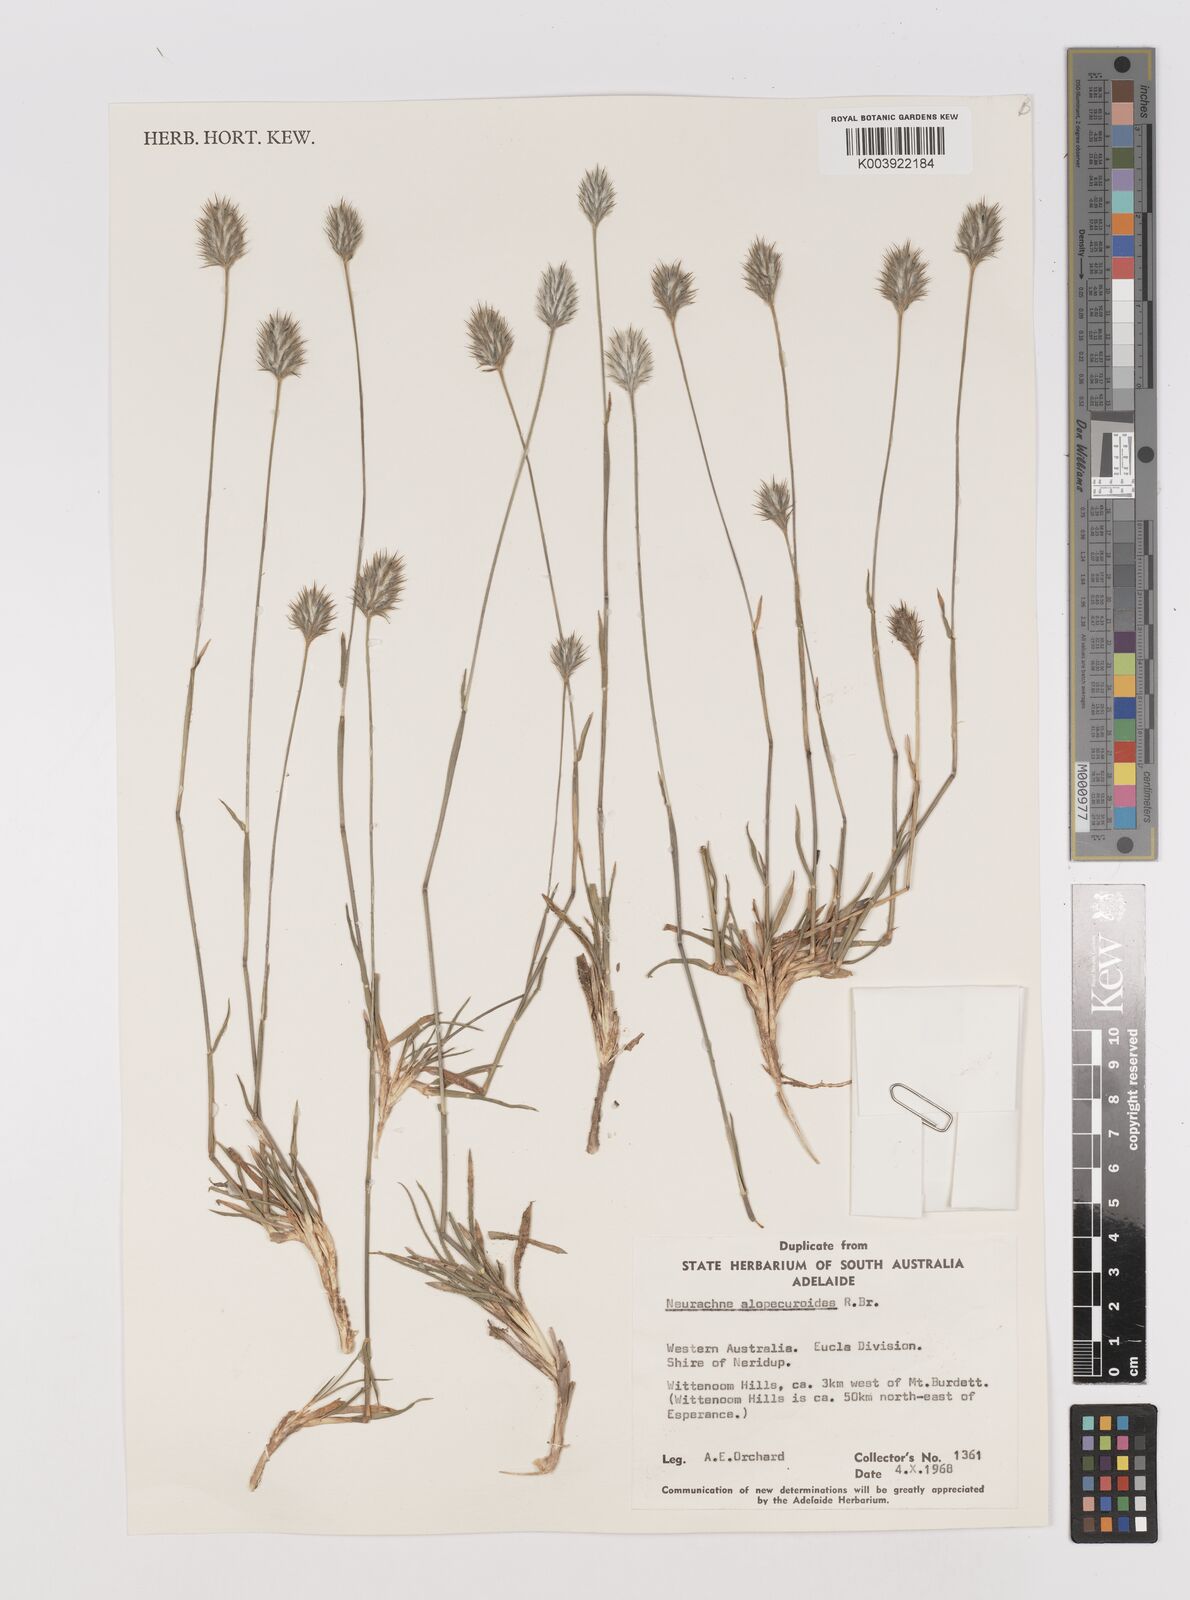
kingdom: Plantae
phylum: Tracheophyta
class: Liliopsida
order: Poales
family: Poaceae
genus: Neurachne
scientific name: Neurachne alopecuroidea
